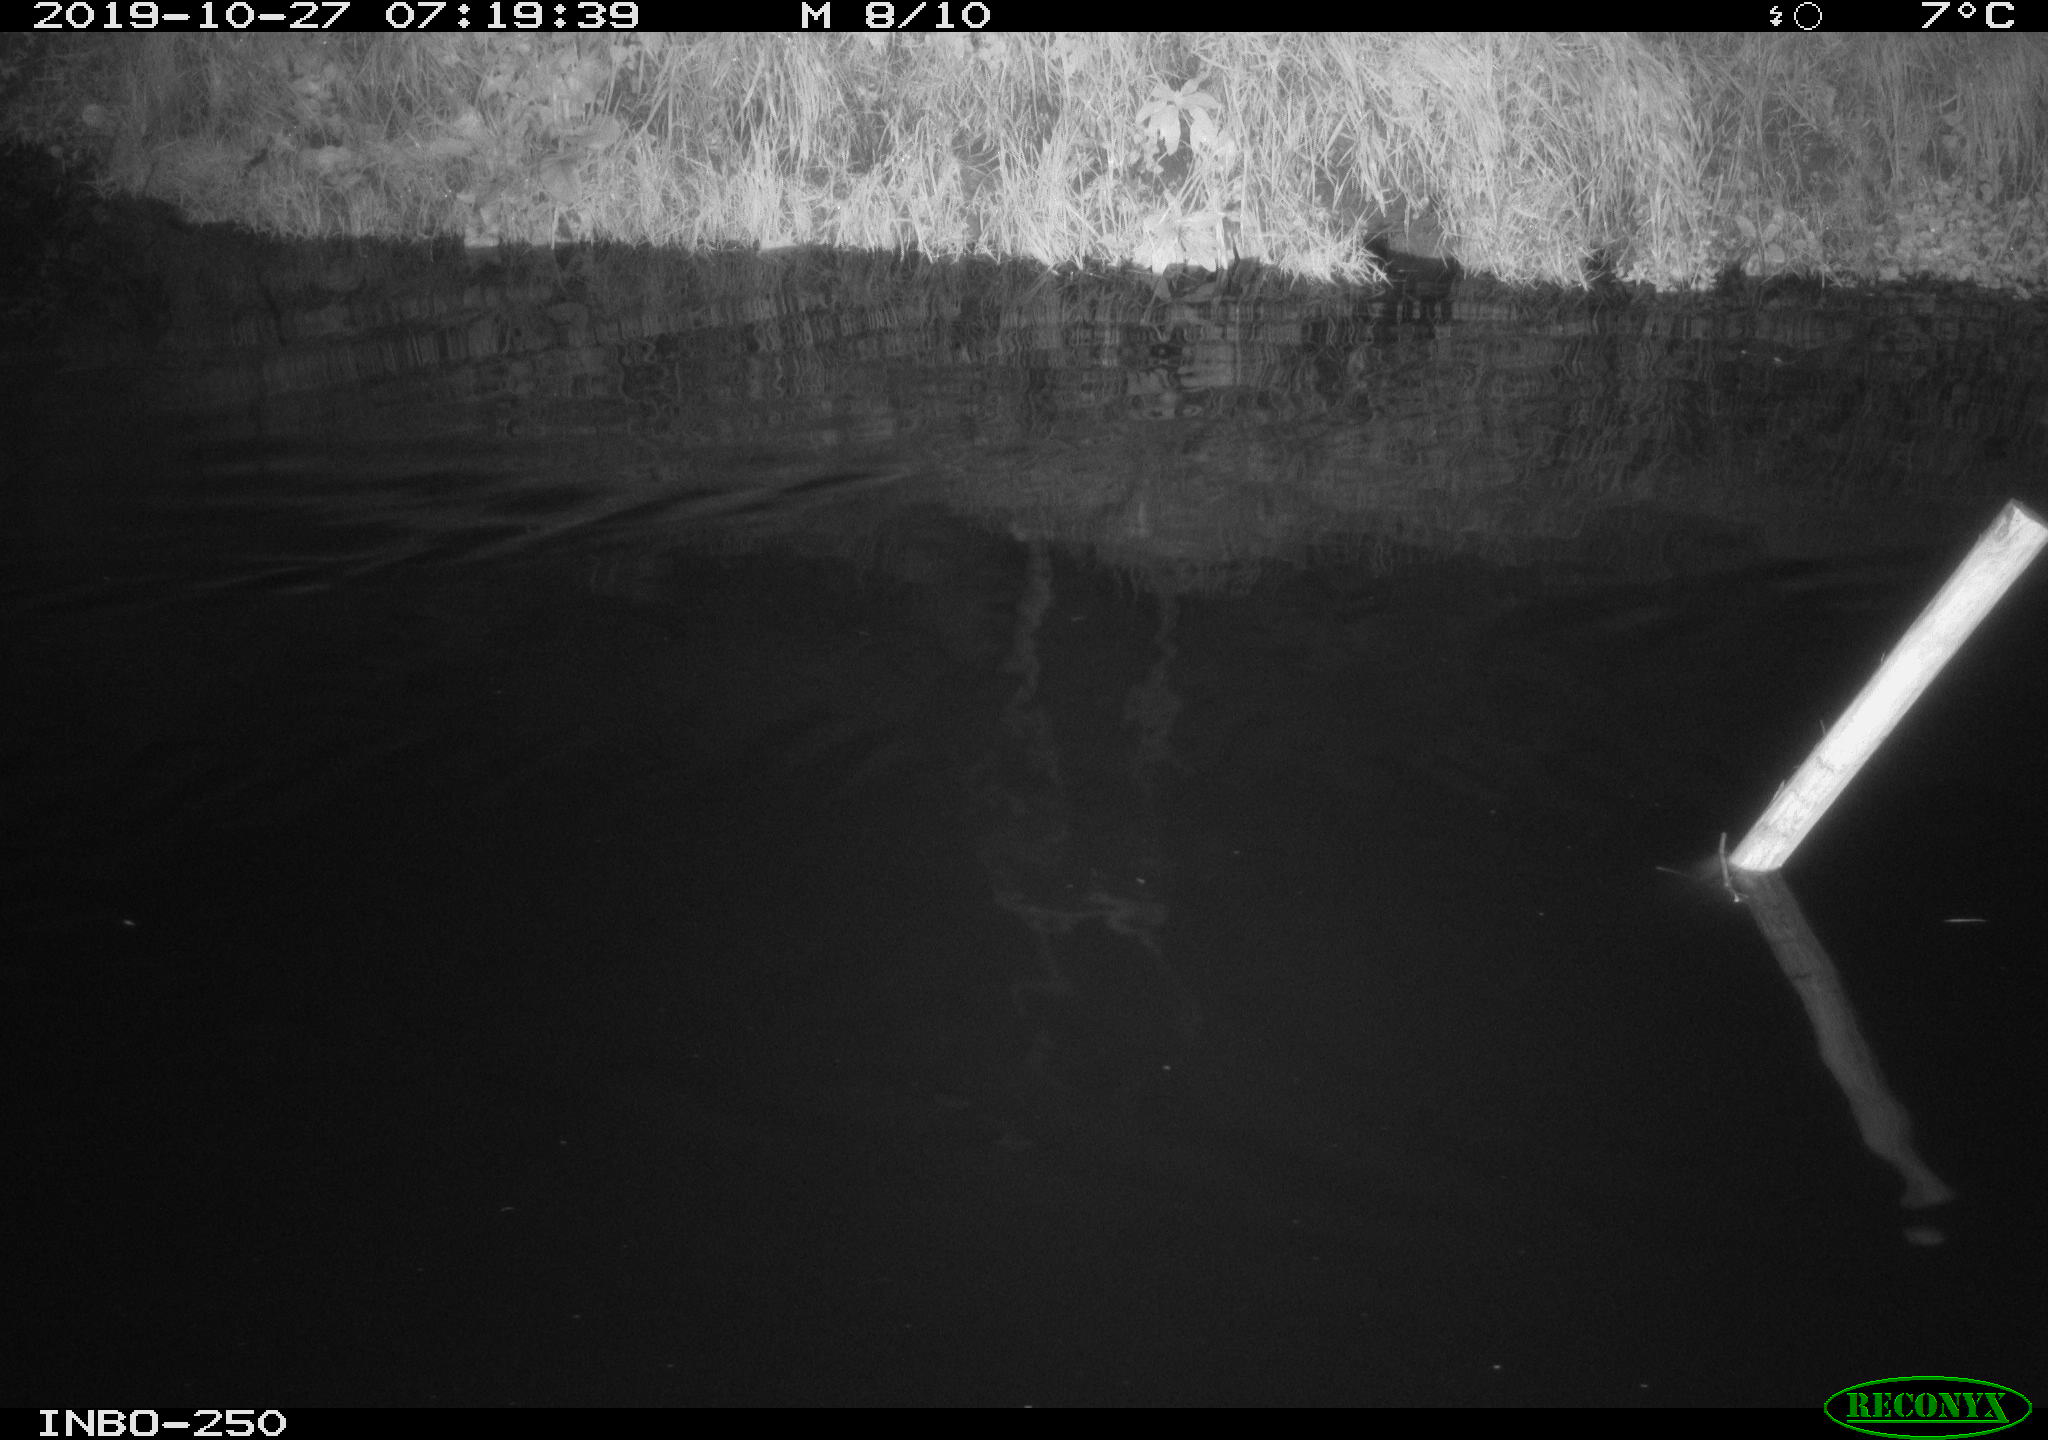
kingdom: Animalia
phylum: Chordata
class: Aves
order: Anseriformes
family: Anatidae
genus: Anas
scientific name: Anas platyrhynchos
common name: Mallard
